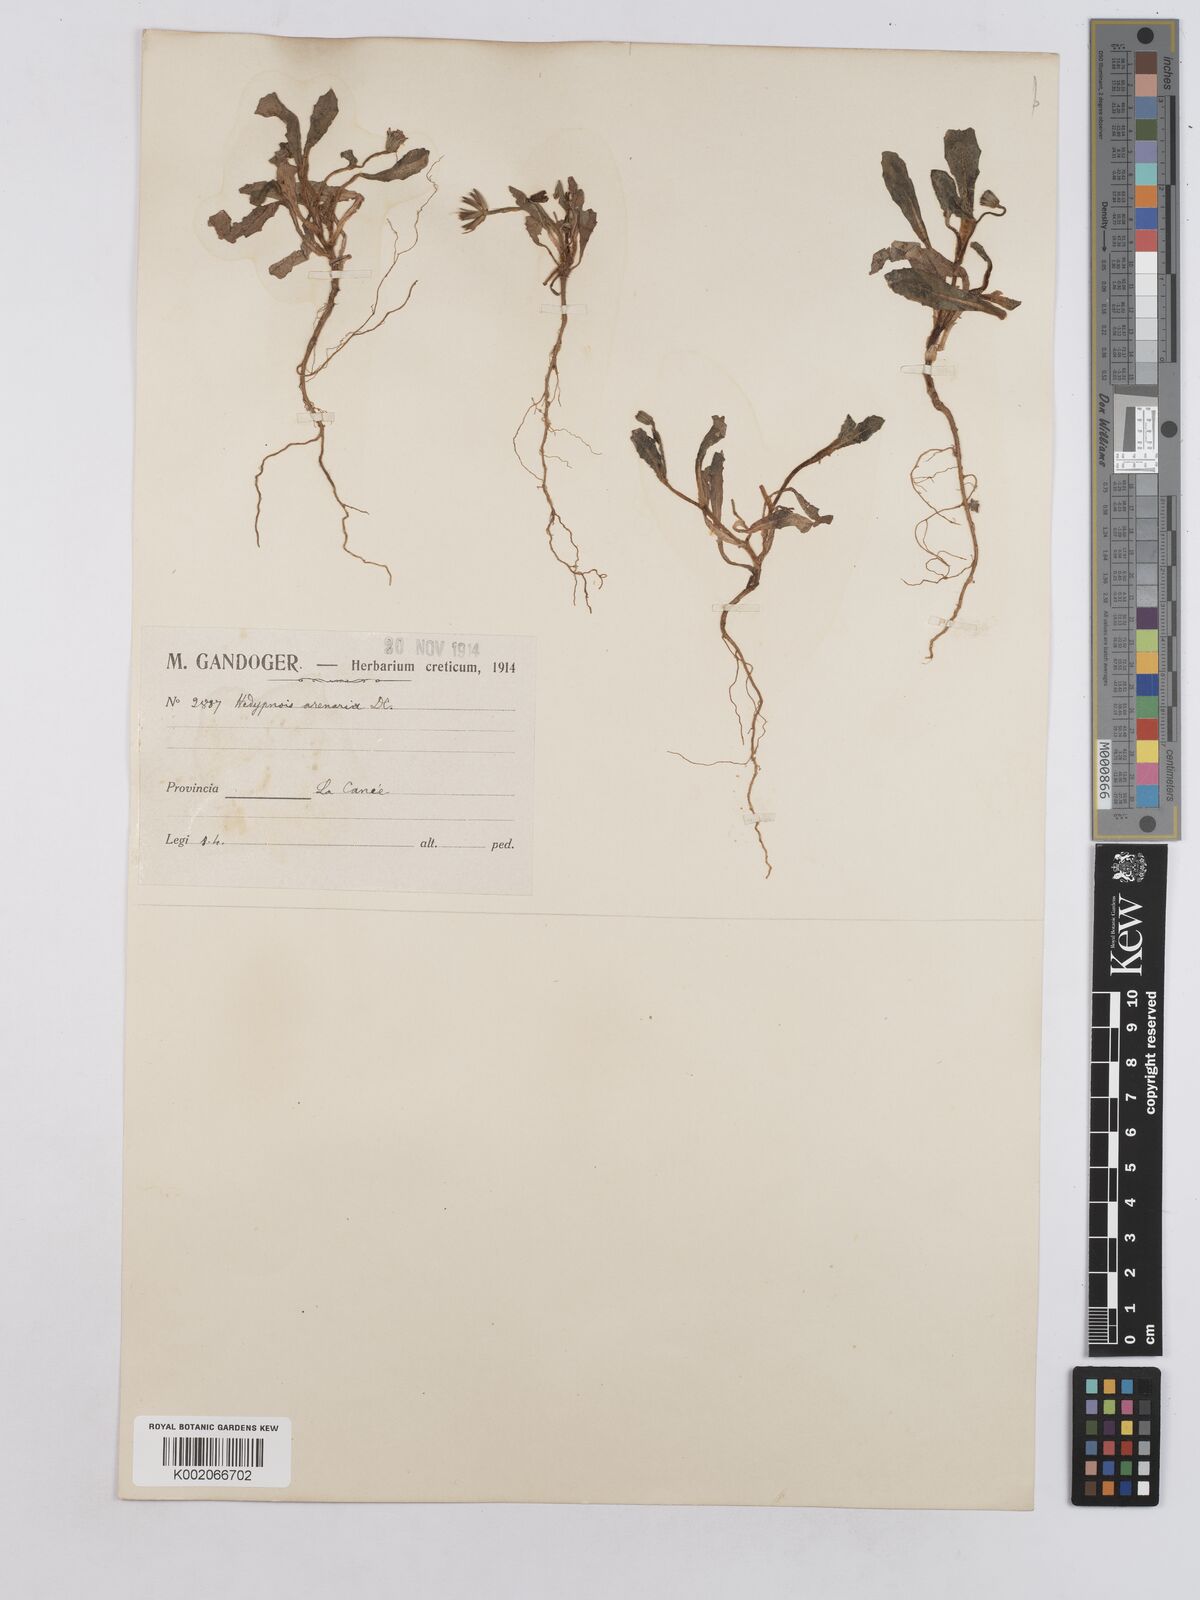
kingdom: Plantae
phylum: Tracheophyta
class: Magnoliopsida
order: Asterales
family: Asteraceae
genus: Hedypnois
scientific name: Hedypnois rhagadioloides
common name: Cretan weed
